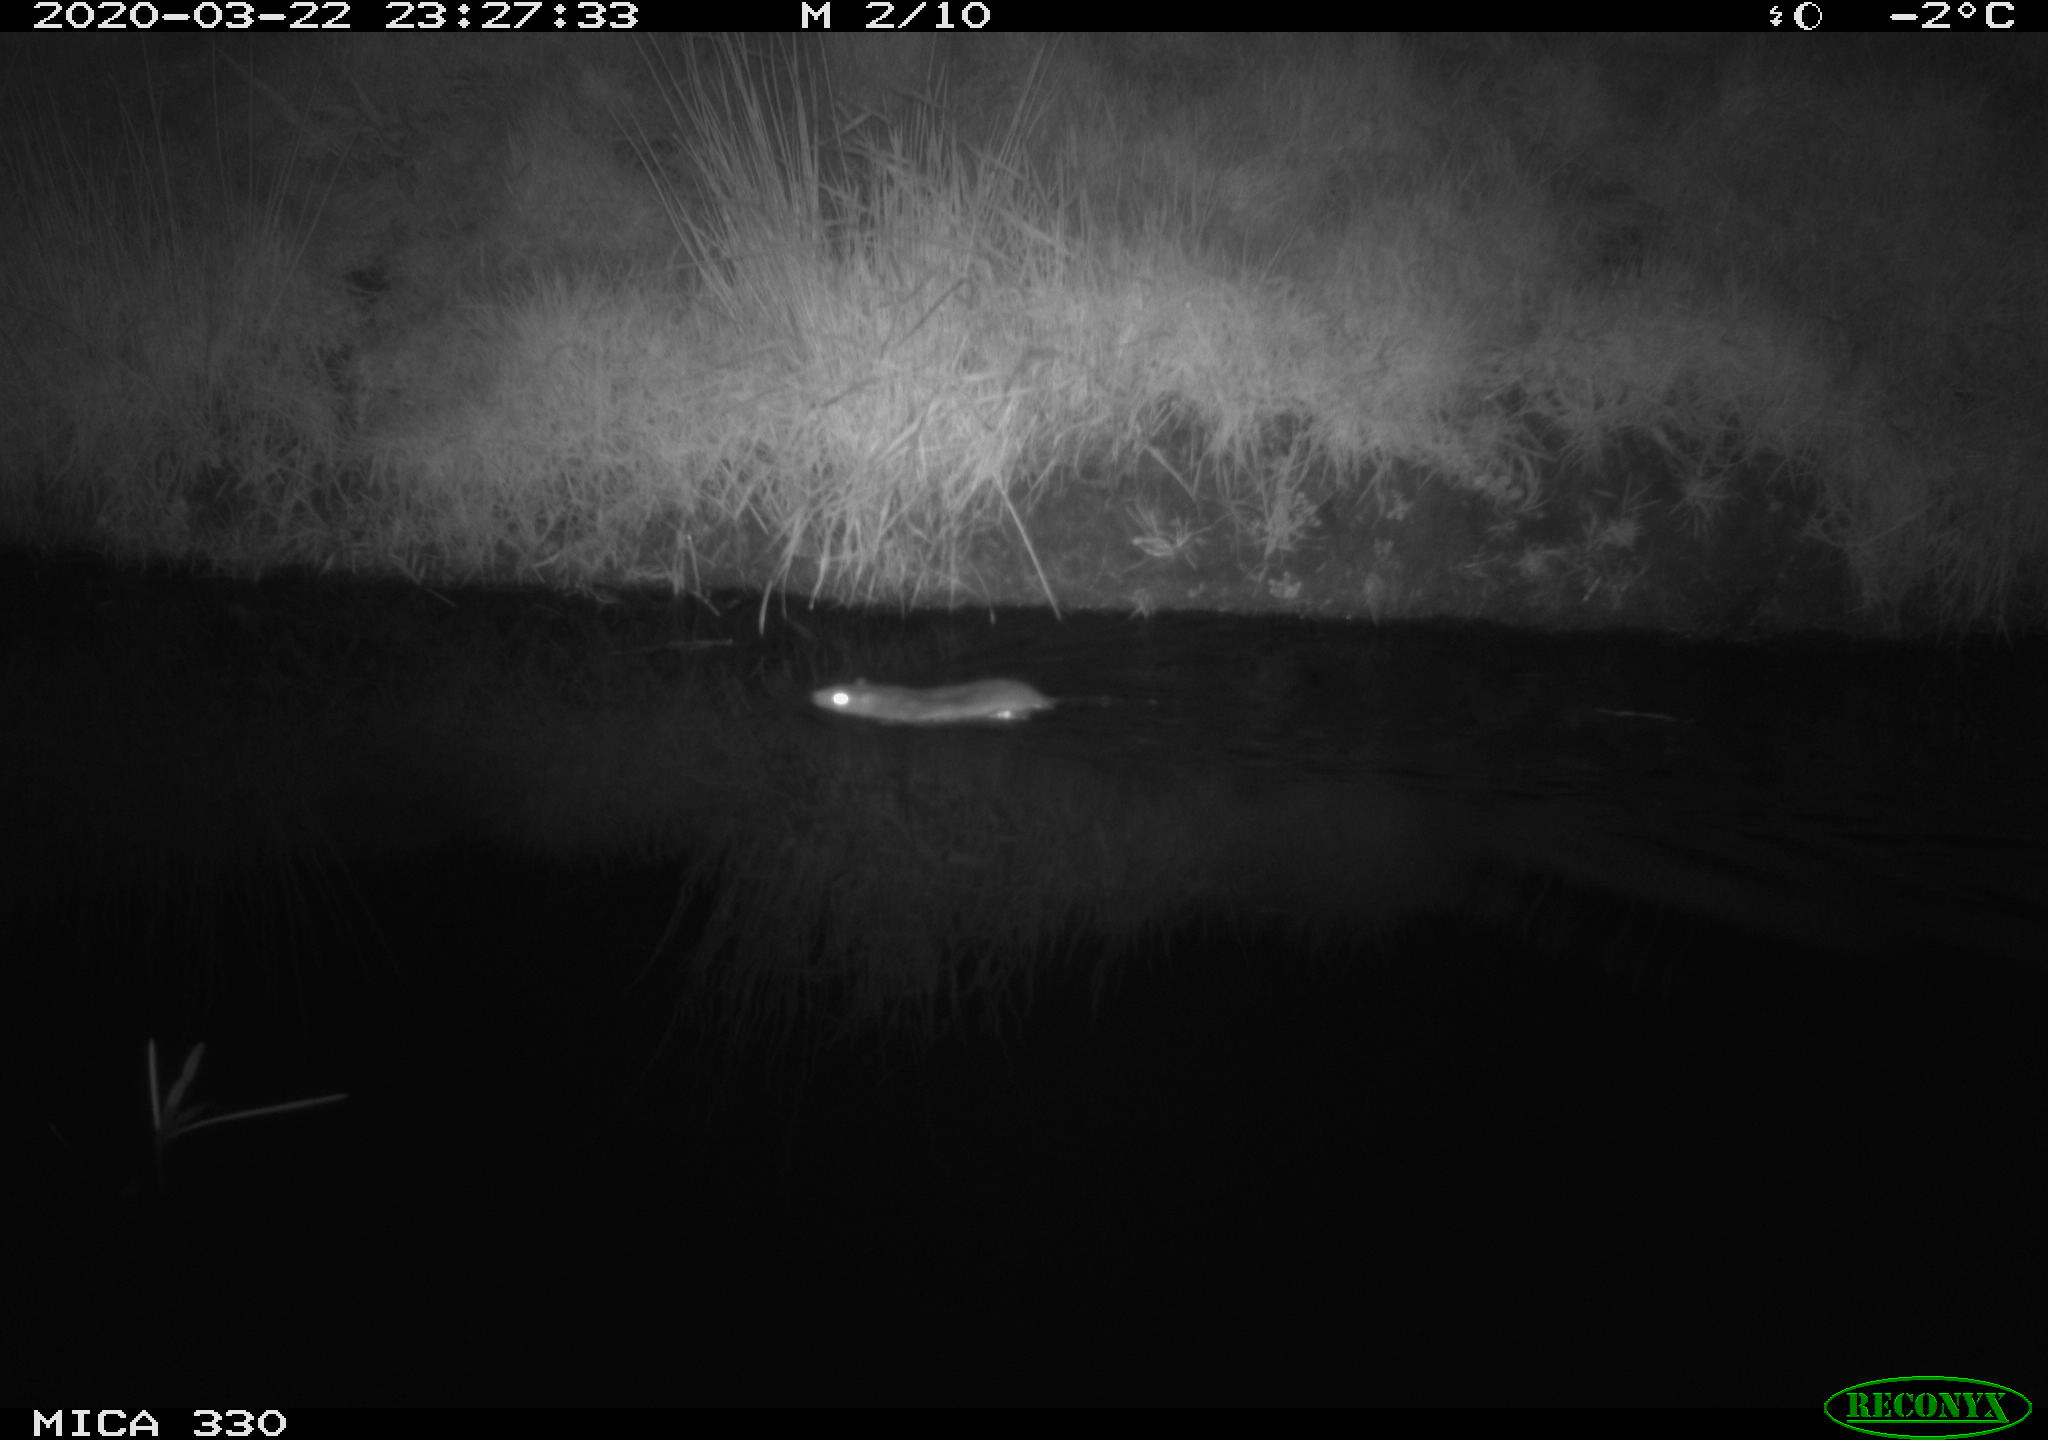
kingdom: Animalia
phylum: Chordata
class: Mammalia
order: Rodentia
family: Muridae
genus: Rattus
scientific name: Rattus norvegicus
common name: Brown rat
